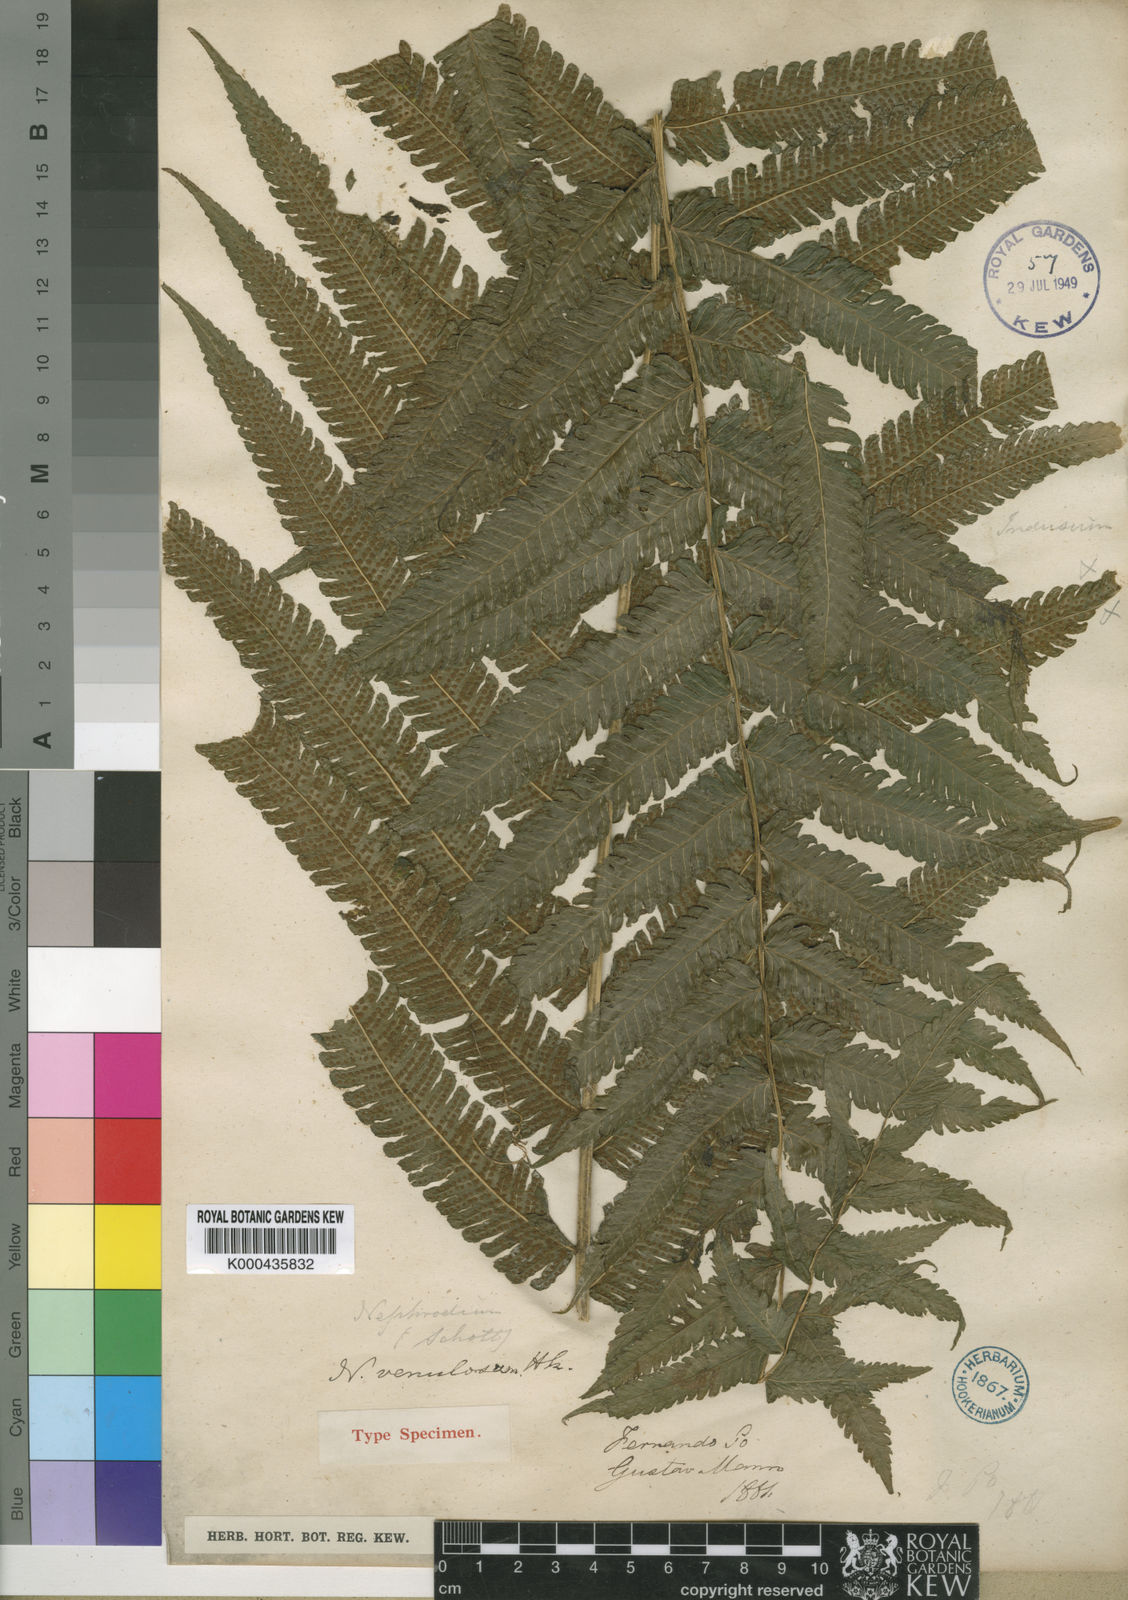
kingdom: Plantae
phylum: Tracheophyta
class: Polypodiopsida
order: Polypodiales
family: Thelypteridaceae
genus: Pneumatopteris
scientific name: Pneumatopteris venulosa
